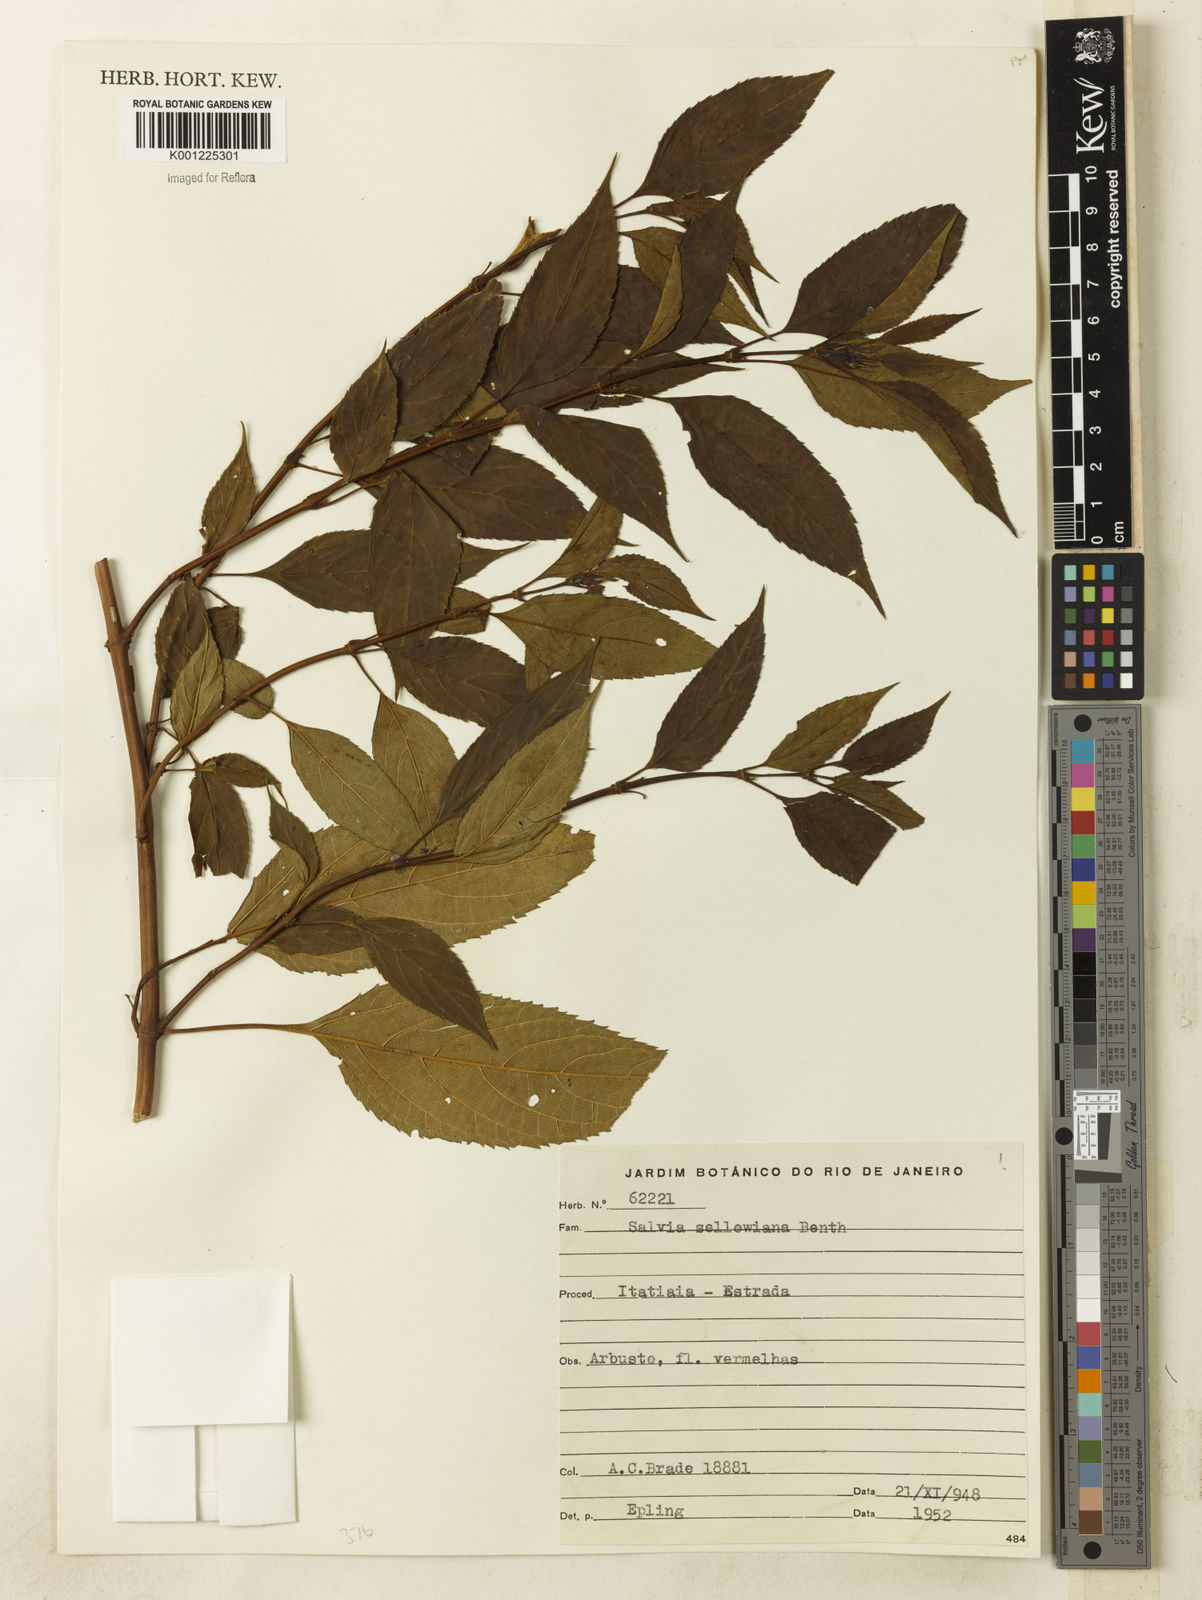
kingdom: Plantae
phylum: Tracheophyta
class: Magnoliopsida
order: Lamiales
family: Lamiaceae
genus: Salvia
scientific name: Salvia sellowiana
